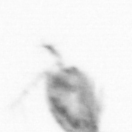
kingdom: Animalia
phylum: Arthropoda
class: Copepoda
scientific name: Copepoda
